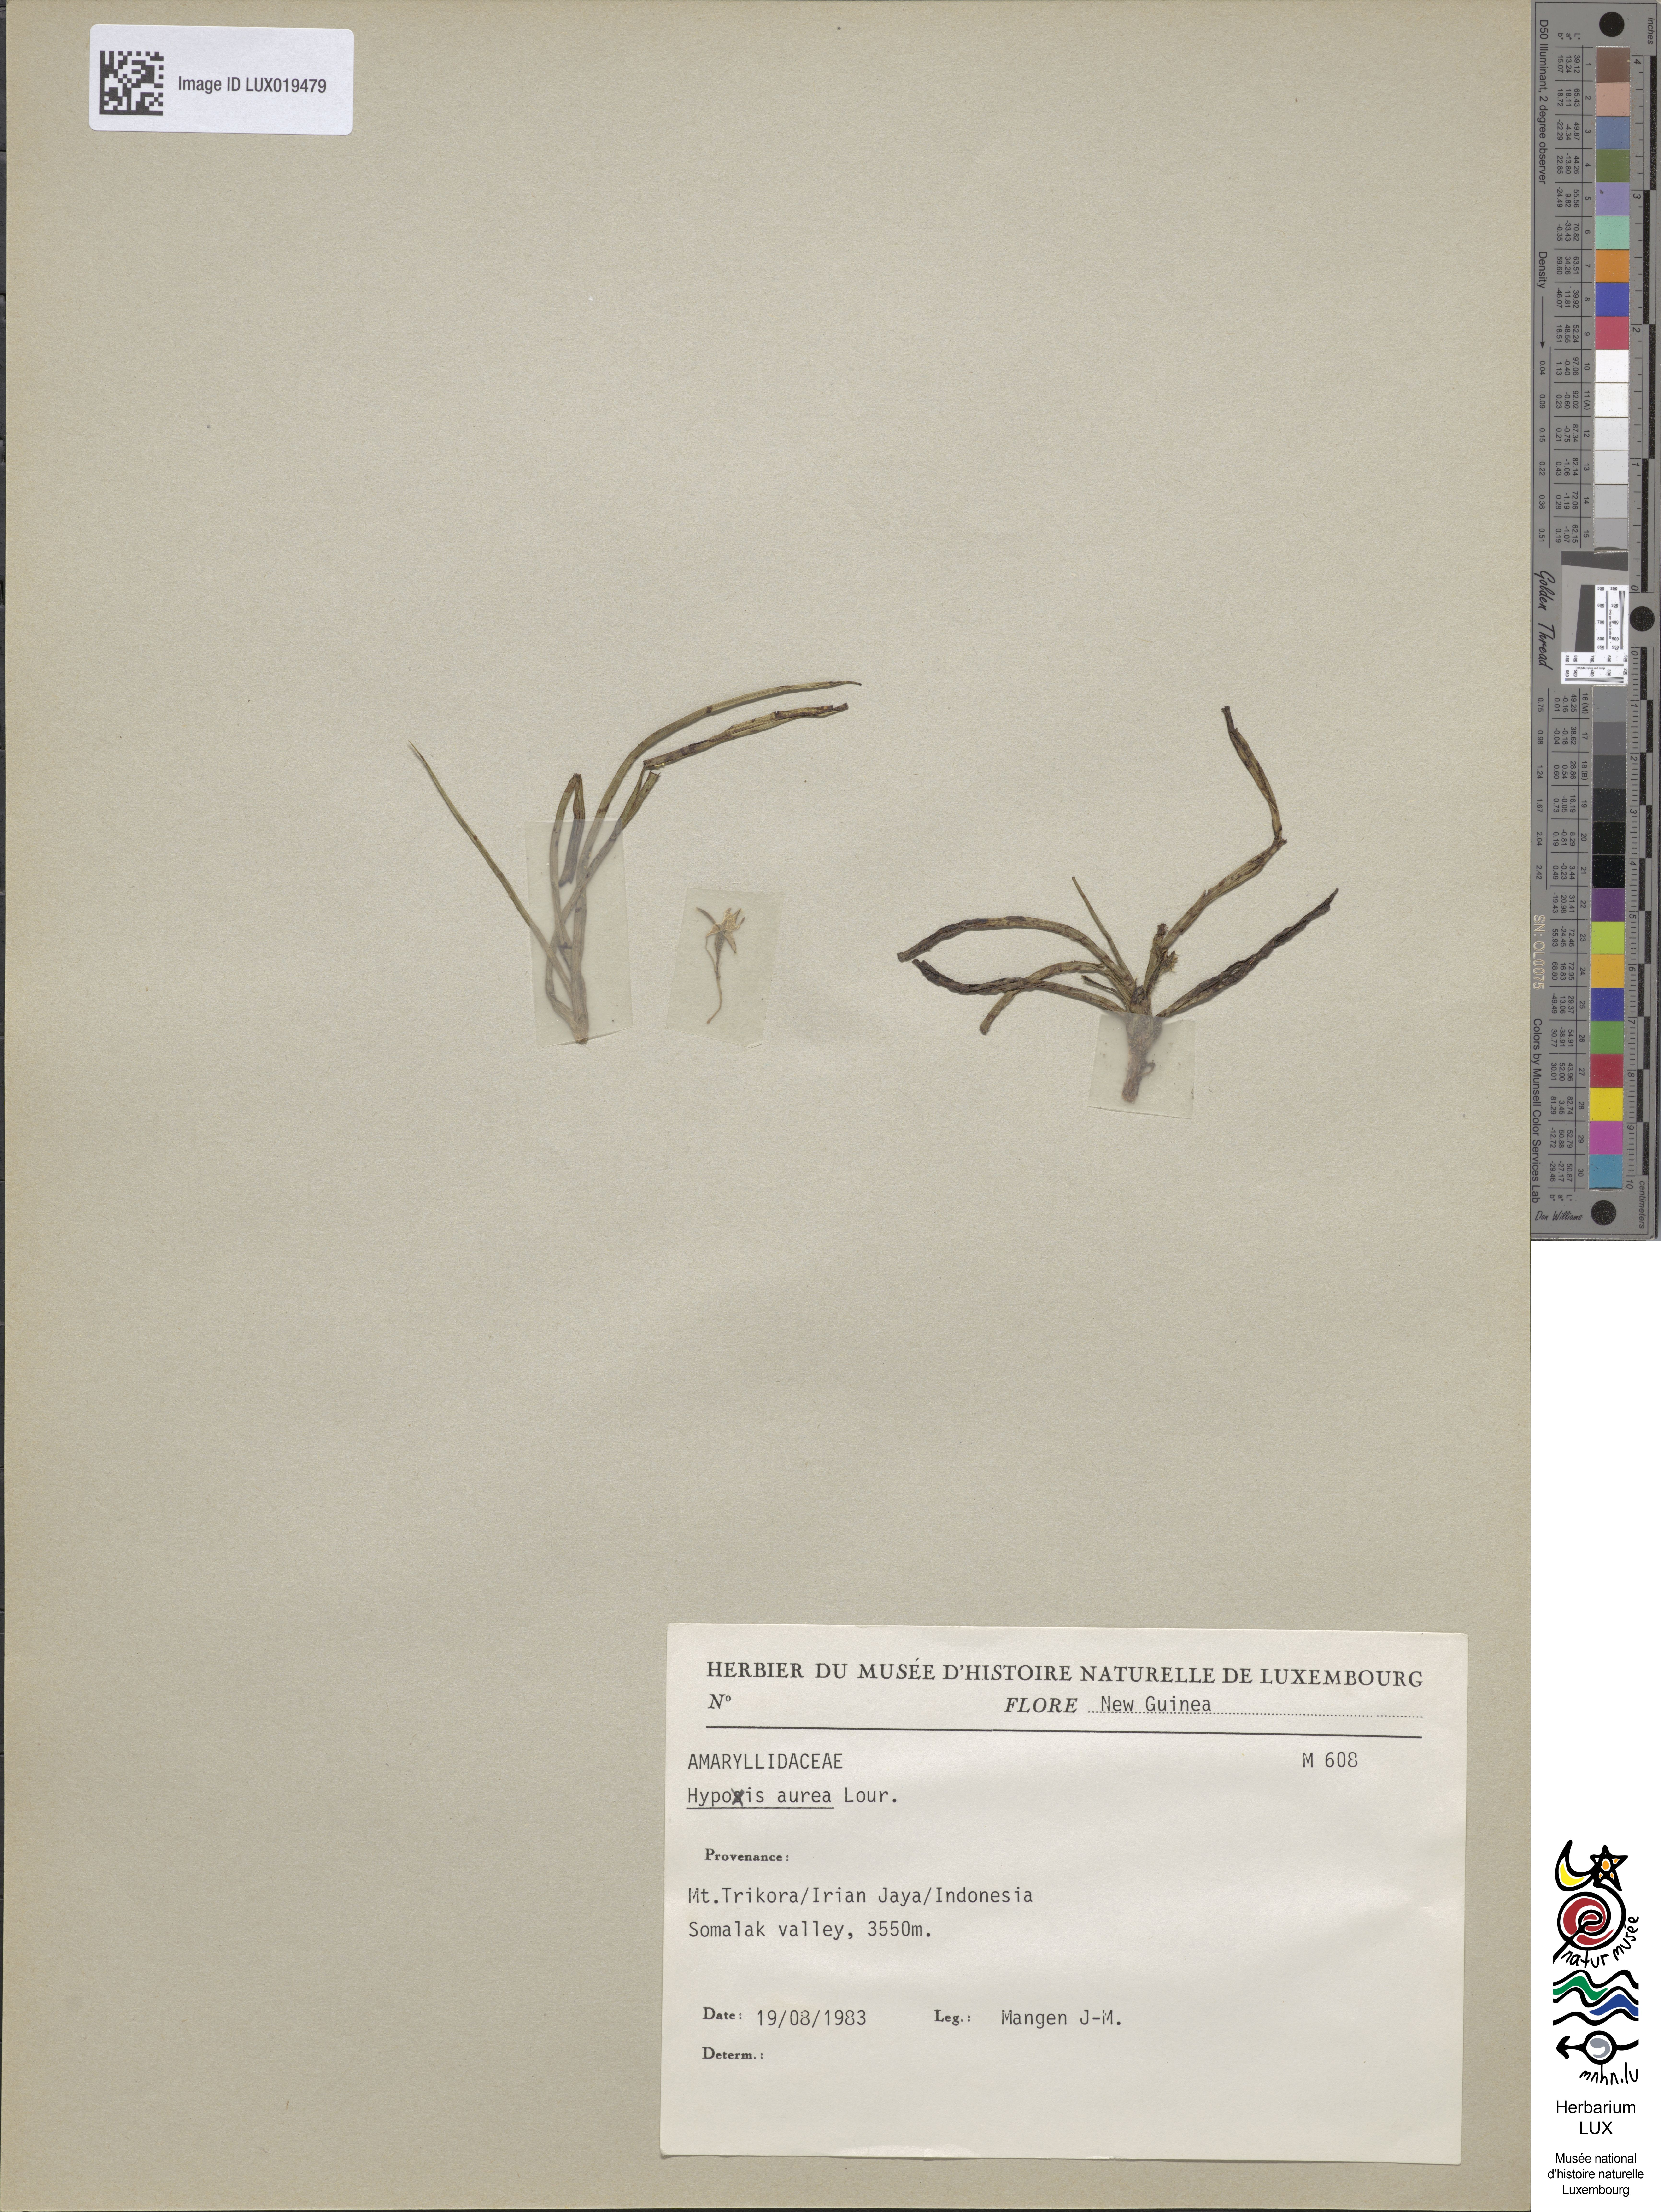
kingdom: Plantae
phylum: Tracheophyta
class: Liliopsida
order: Asparagales
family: Hypoxidaceae
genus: Hypoxis
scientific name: Hypoxis aurea
